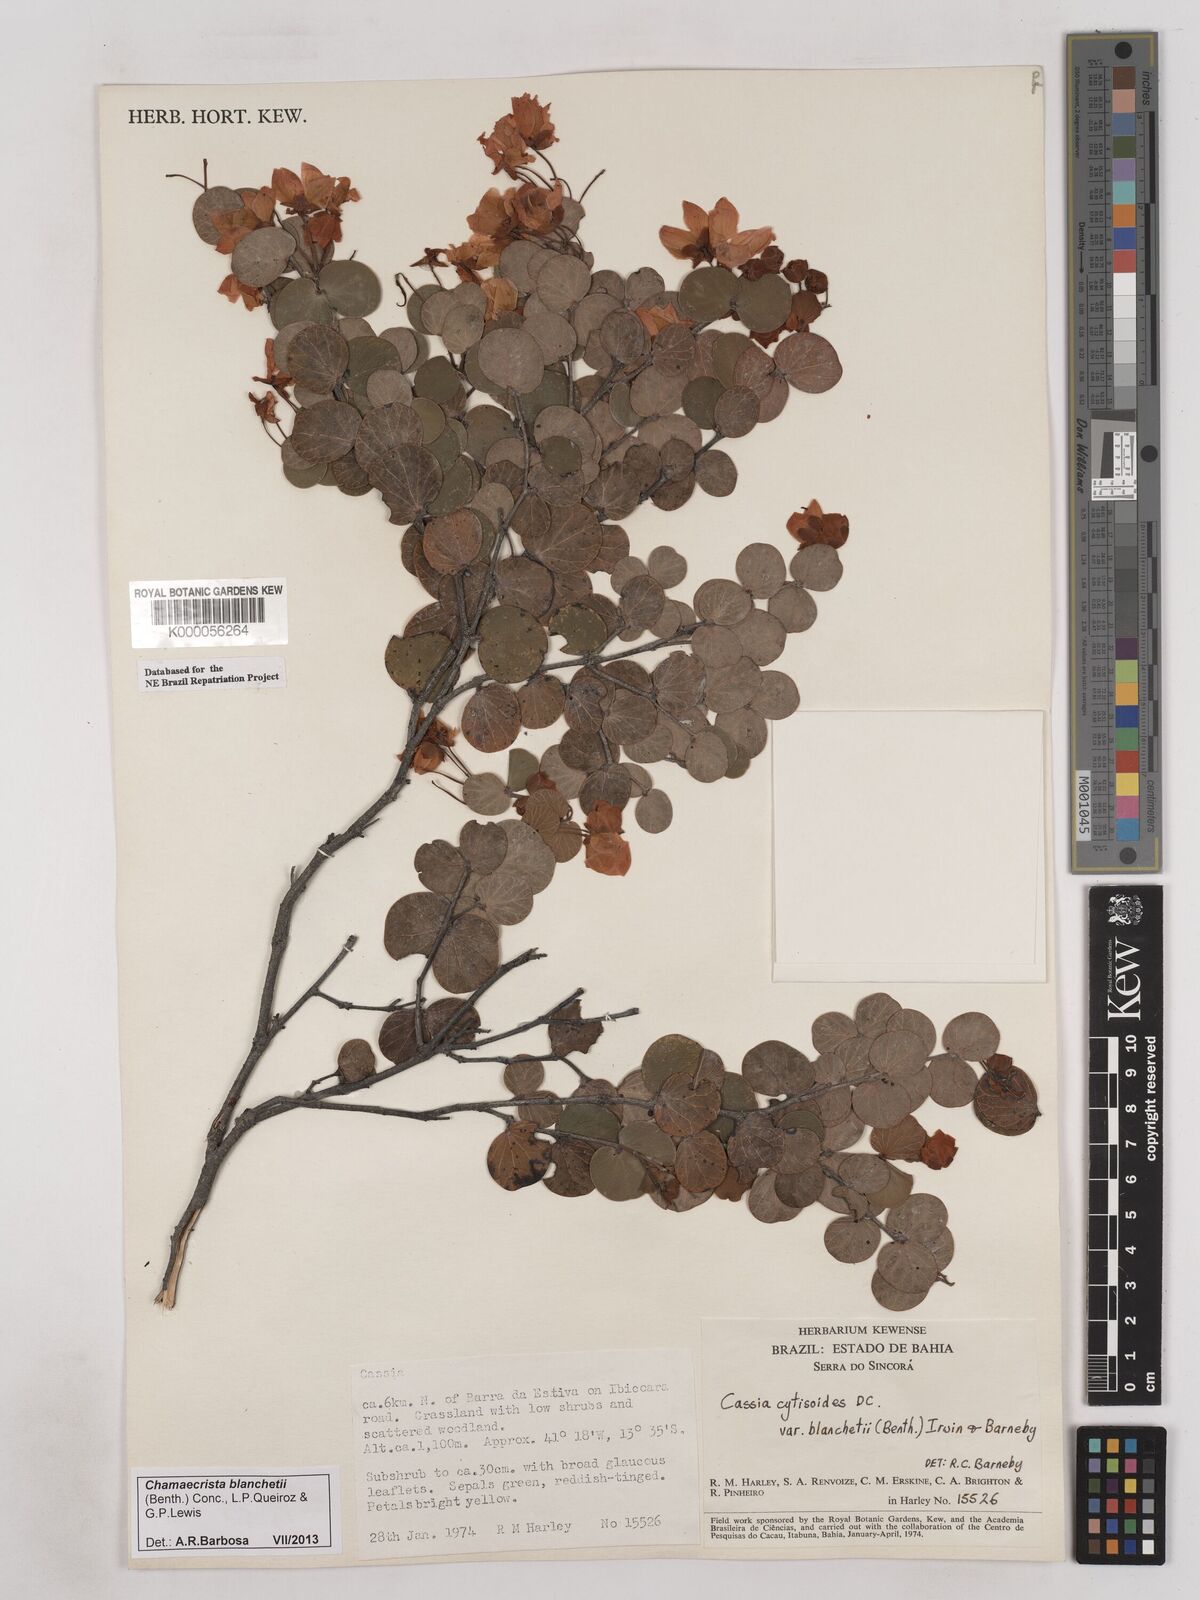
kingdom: Plantae
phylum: Tracheophyta
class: Magnoliopsida
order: Fabales
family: Fabaceae
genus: Chamaecrista
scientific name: Chamaecrista cytisoides
